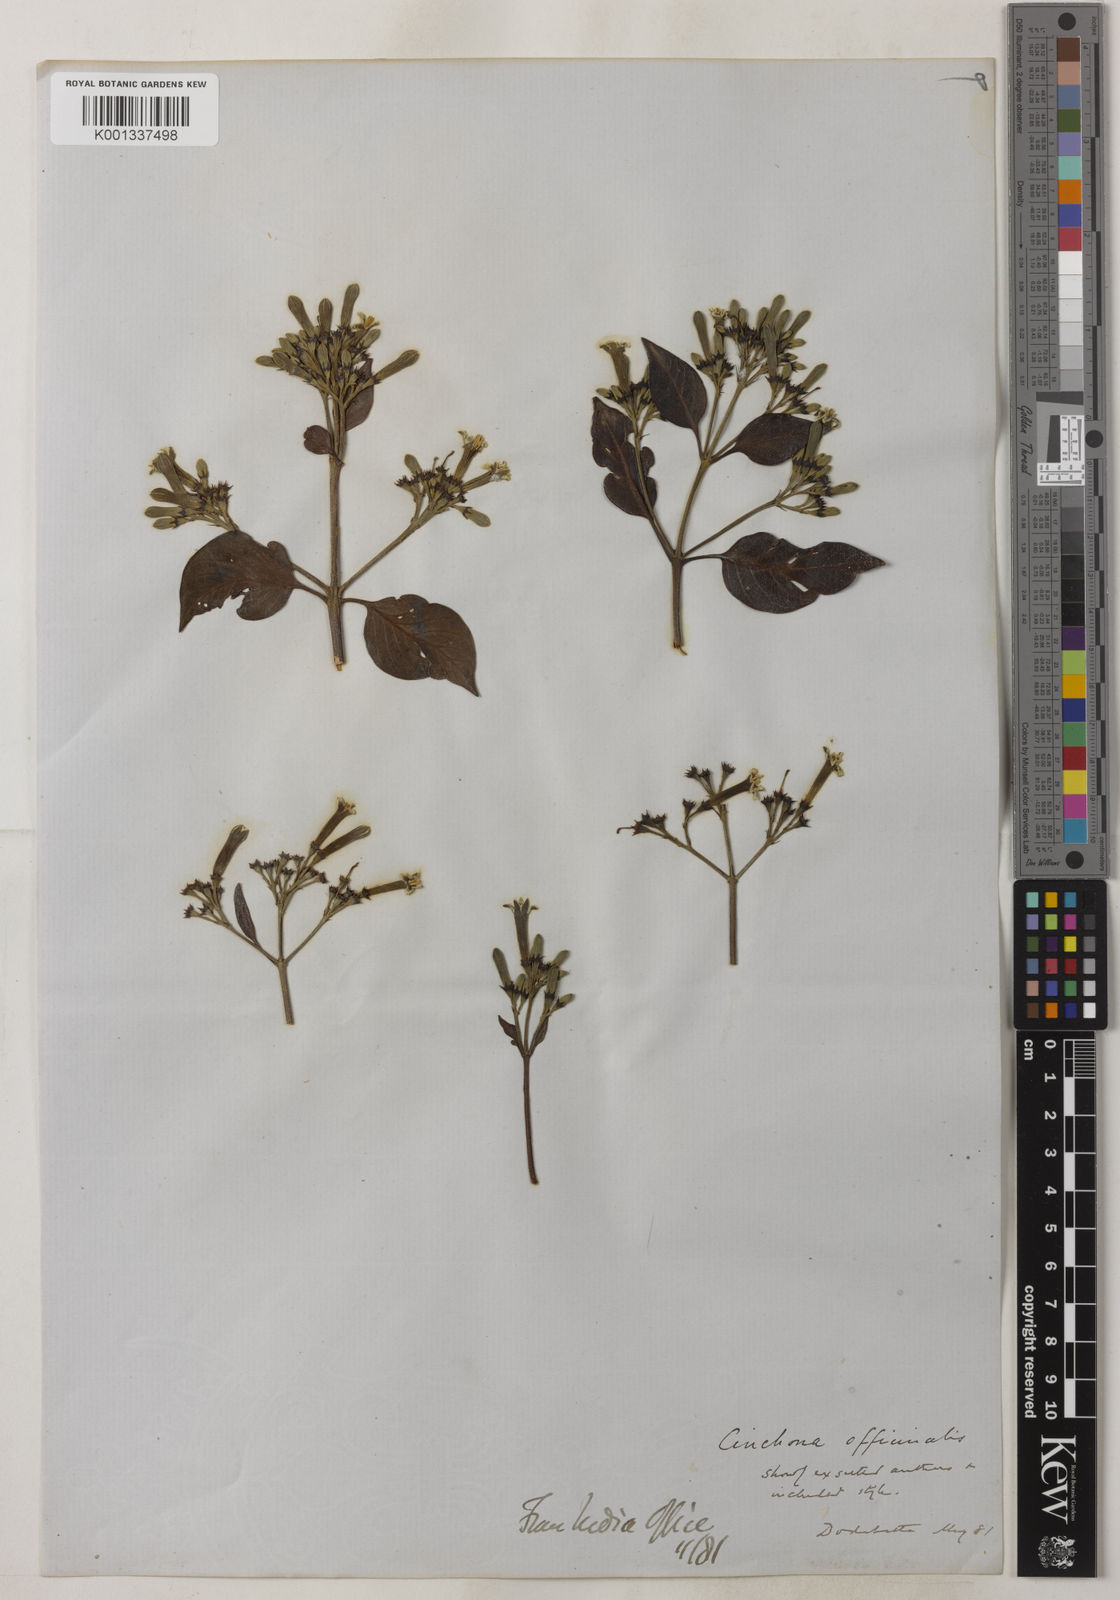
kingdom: Plantae
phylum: Tracheophyta
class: Magnoliopsida
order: Gentianales
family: Rubiaceae
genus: Cinchona
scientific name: Cinchona officinalis
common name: Lojabark
